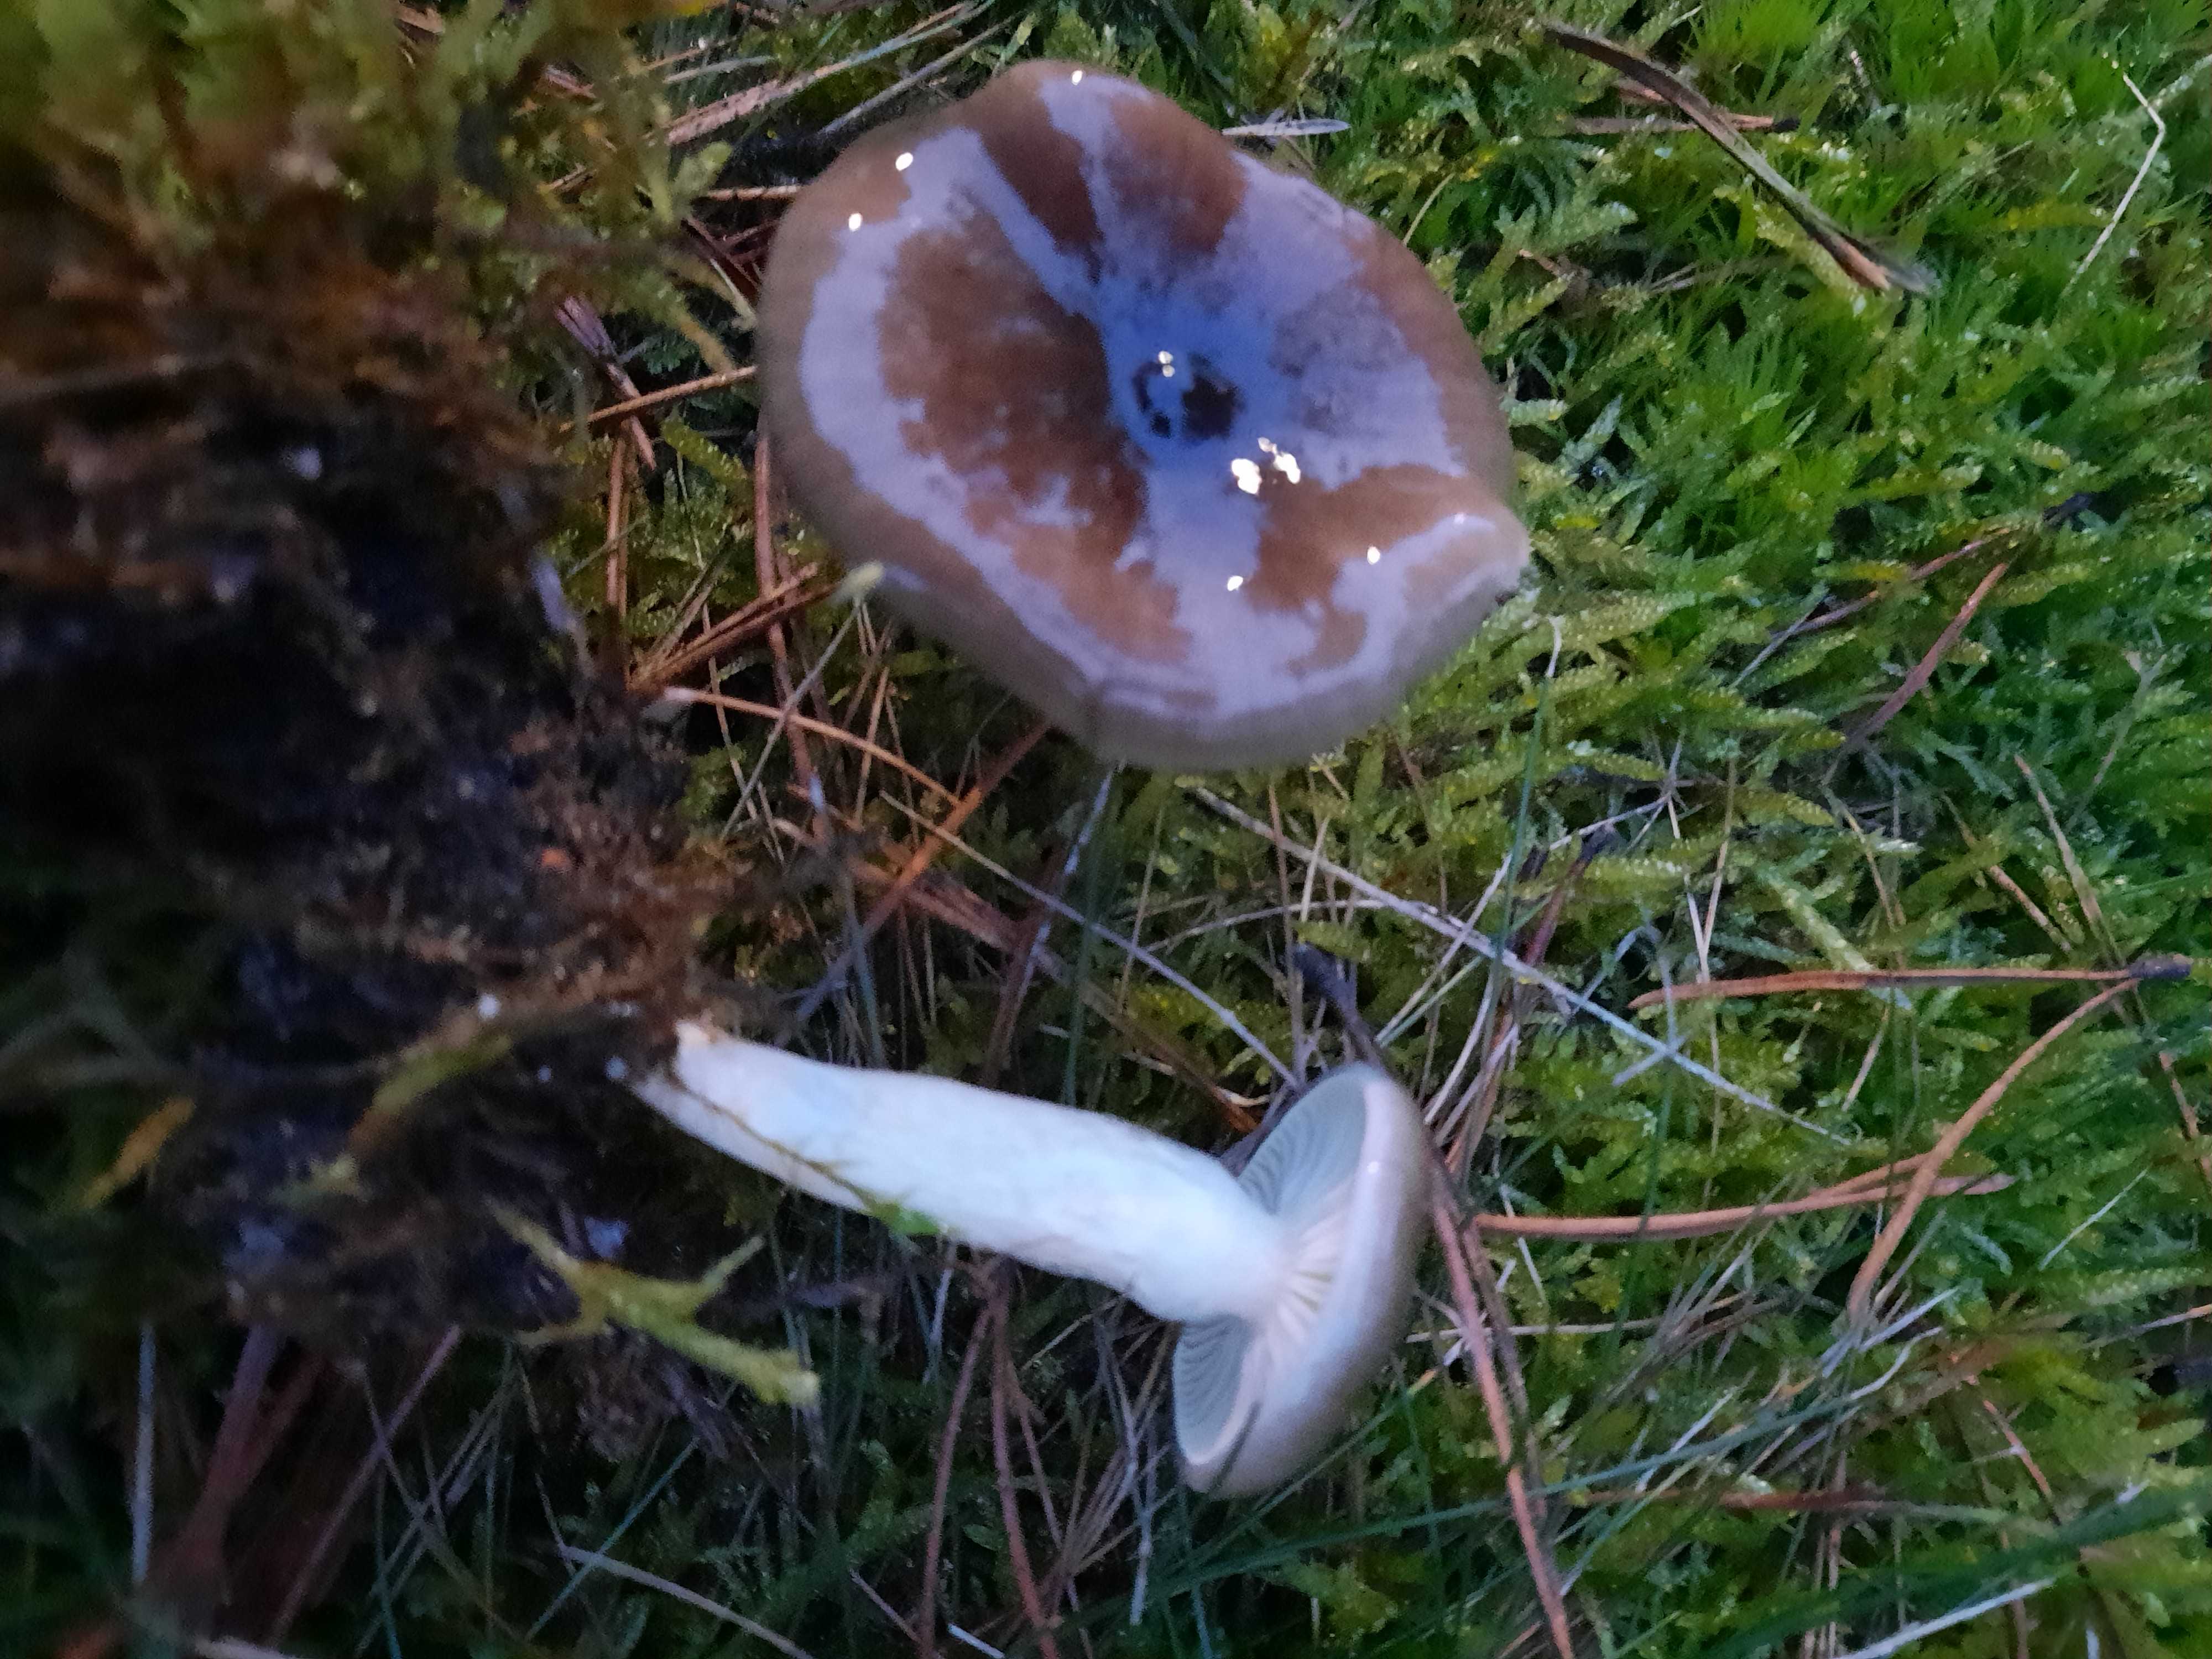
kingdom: Fungi
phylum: Basidiomycota
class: Agaricomycetes
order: Agaricales
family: Hygrophoraceae
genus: Hygrophorus
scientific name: Hygrophorus hypothejus
